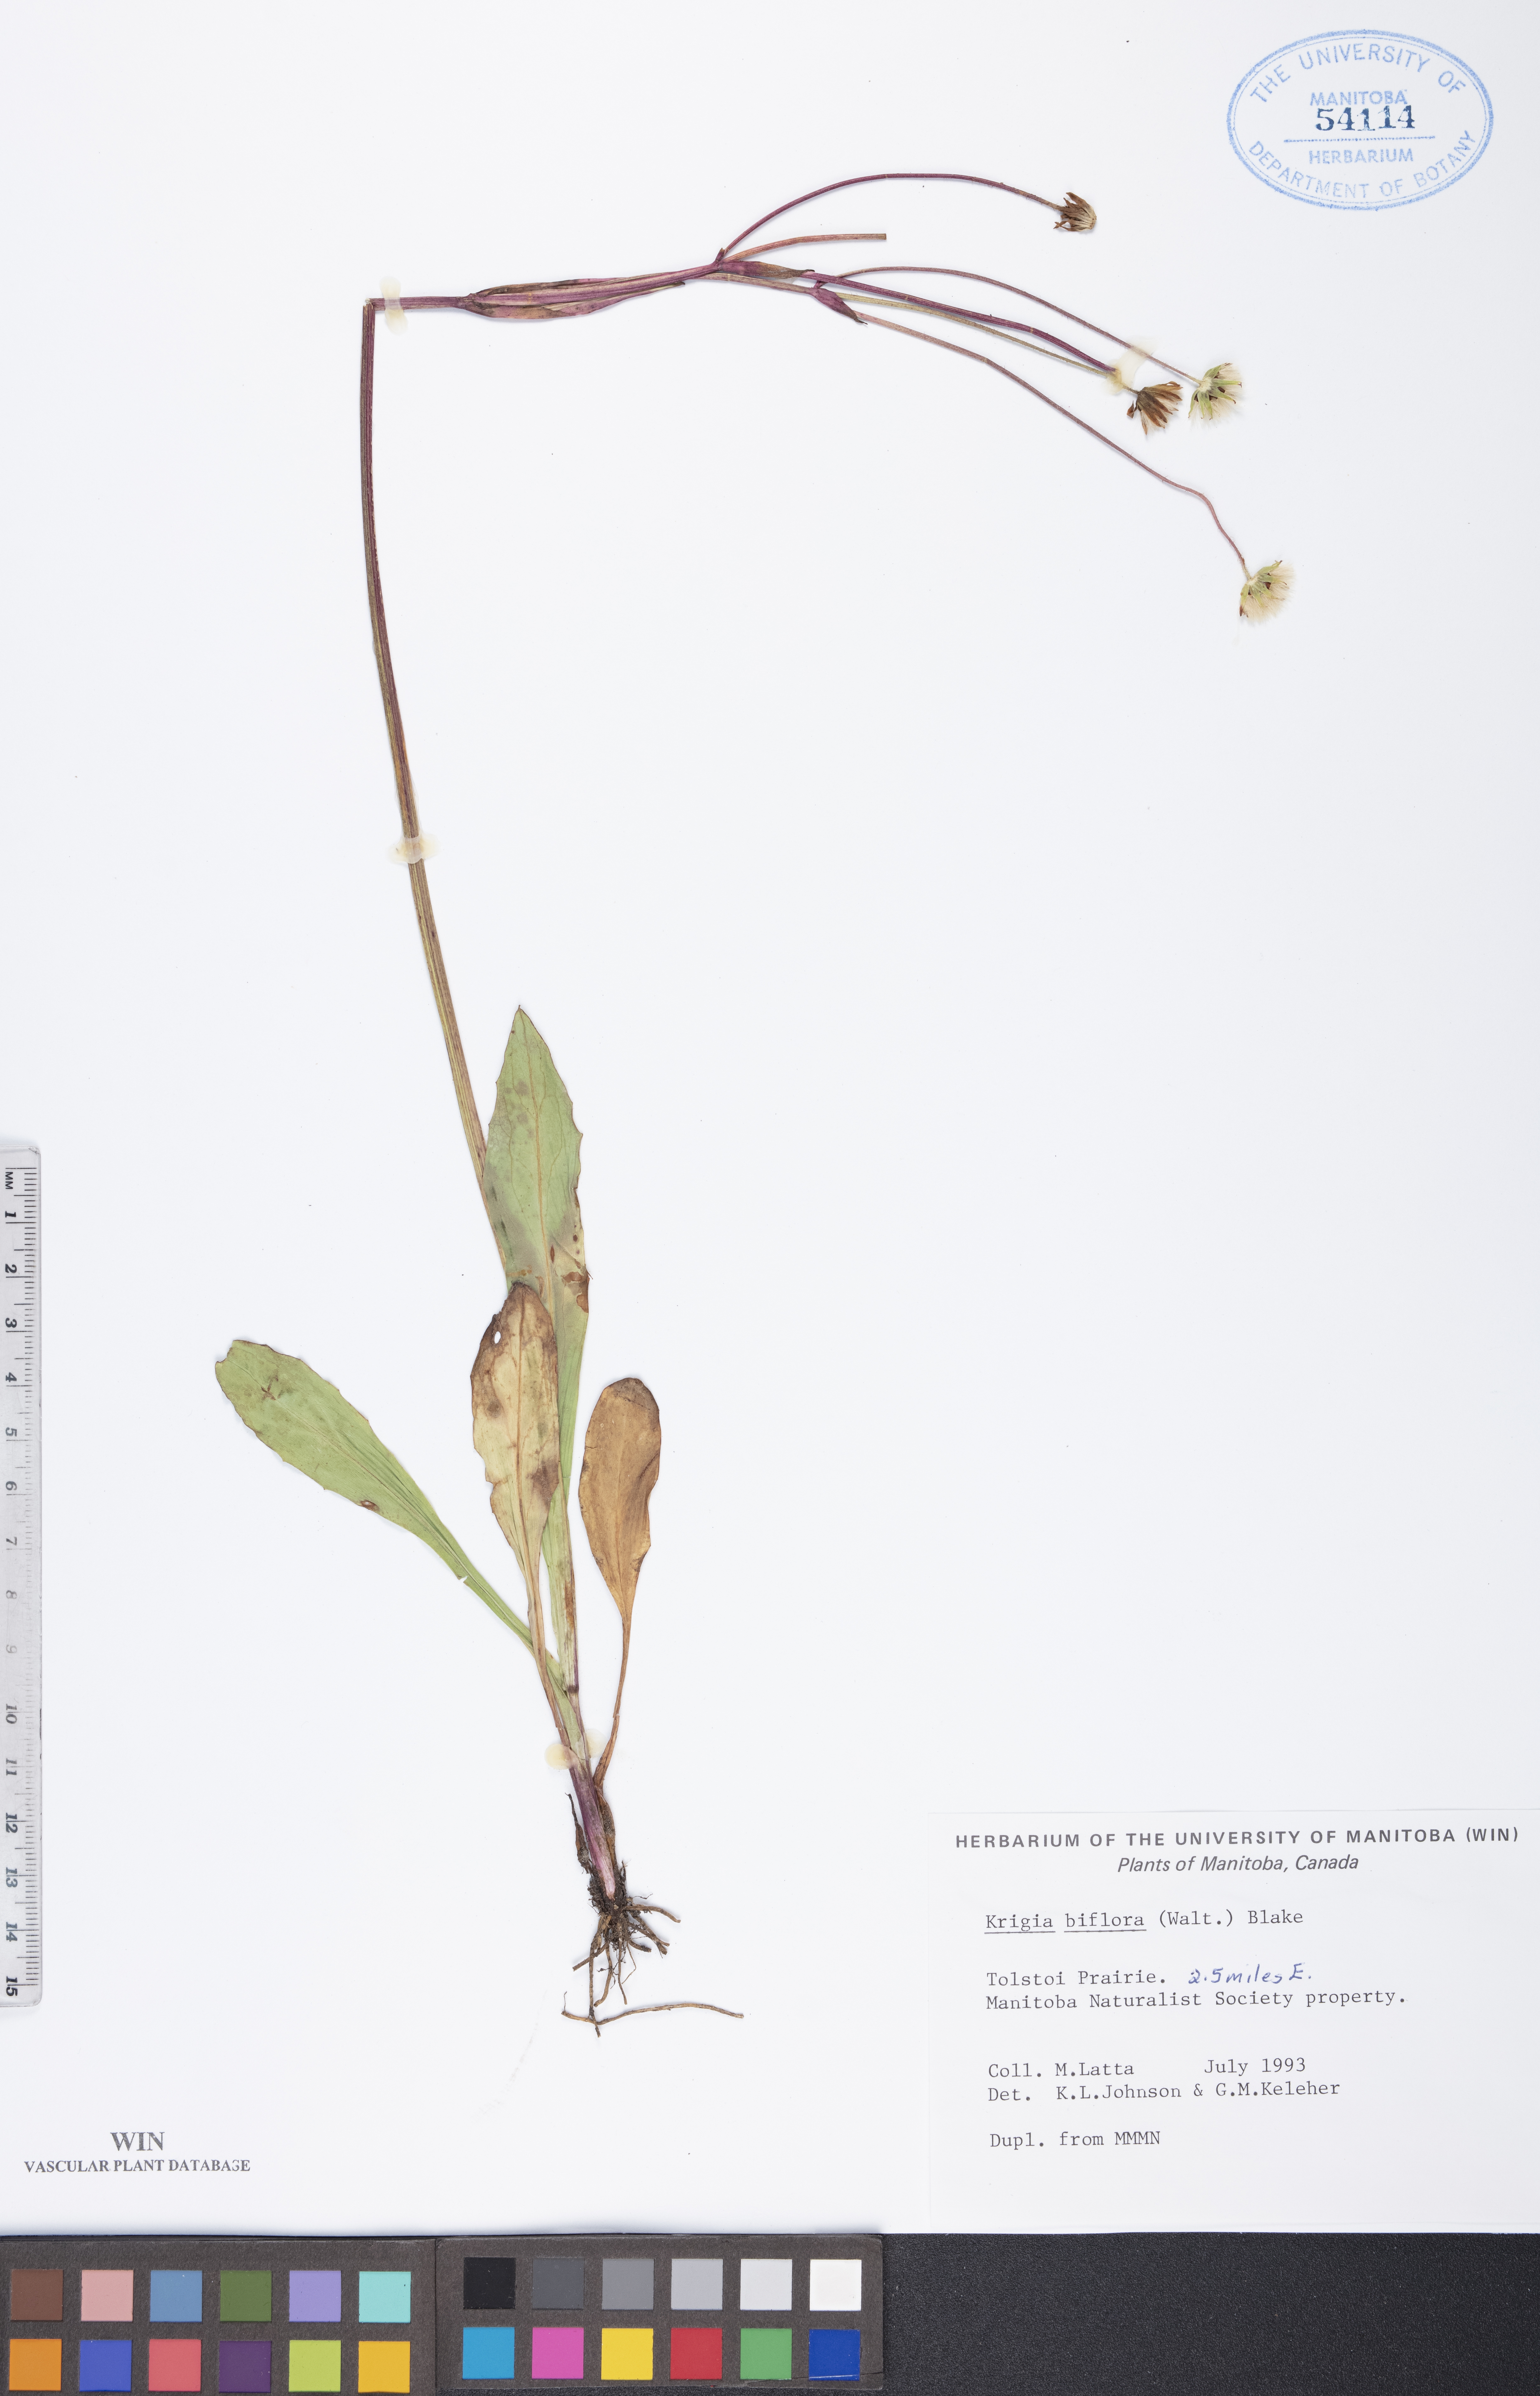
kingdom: Plantae
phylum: Tracheophyta
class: Magnoliopsida
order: Asterales
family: Asteraceae
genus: Krigia
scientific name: Krigia biflora
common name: Orange dwarf-dandelion
